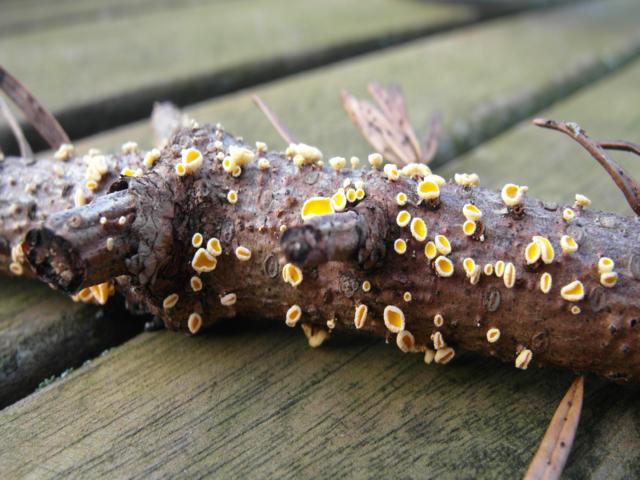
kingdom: Fungi
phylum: Ascomycota
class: Leotiomycetes
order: Helotiales
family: Lachnaceae
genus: Lachnellula
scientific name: Lachnellula calyciformis
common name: ædelgran-frynseskive
